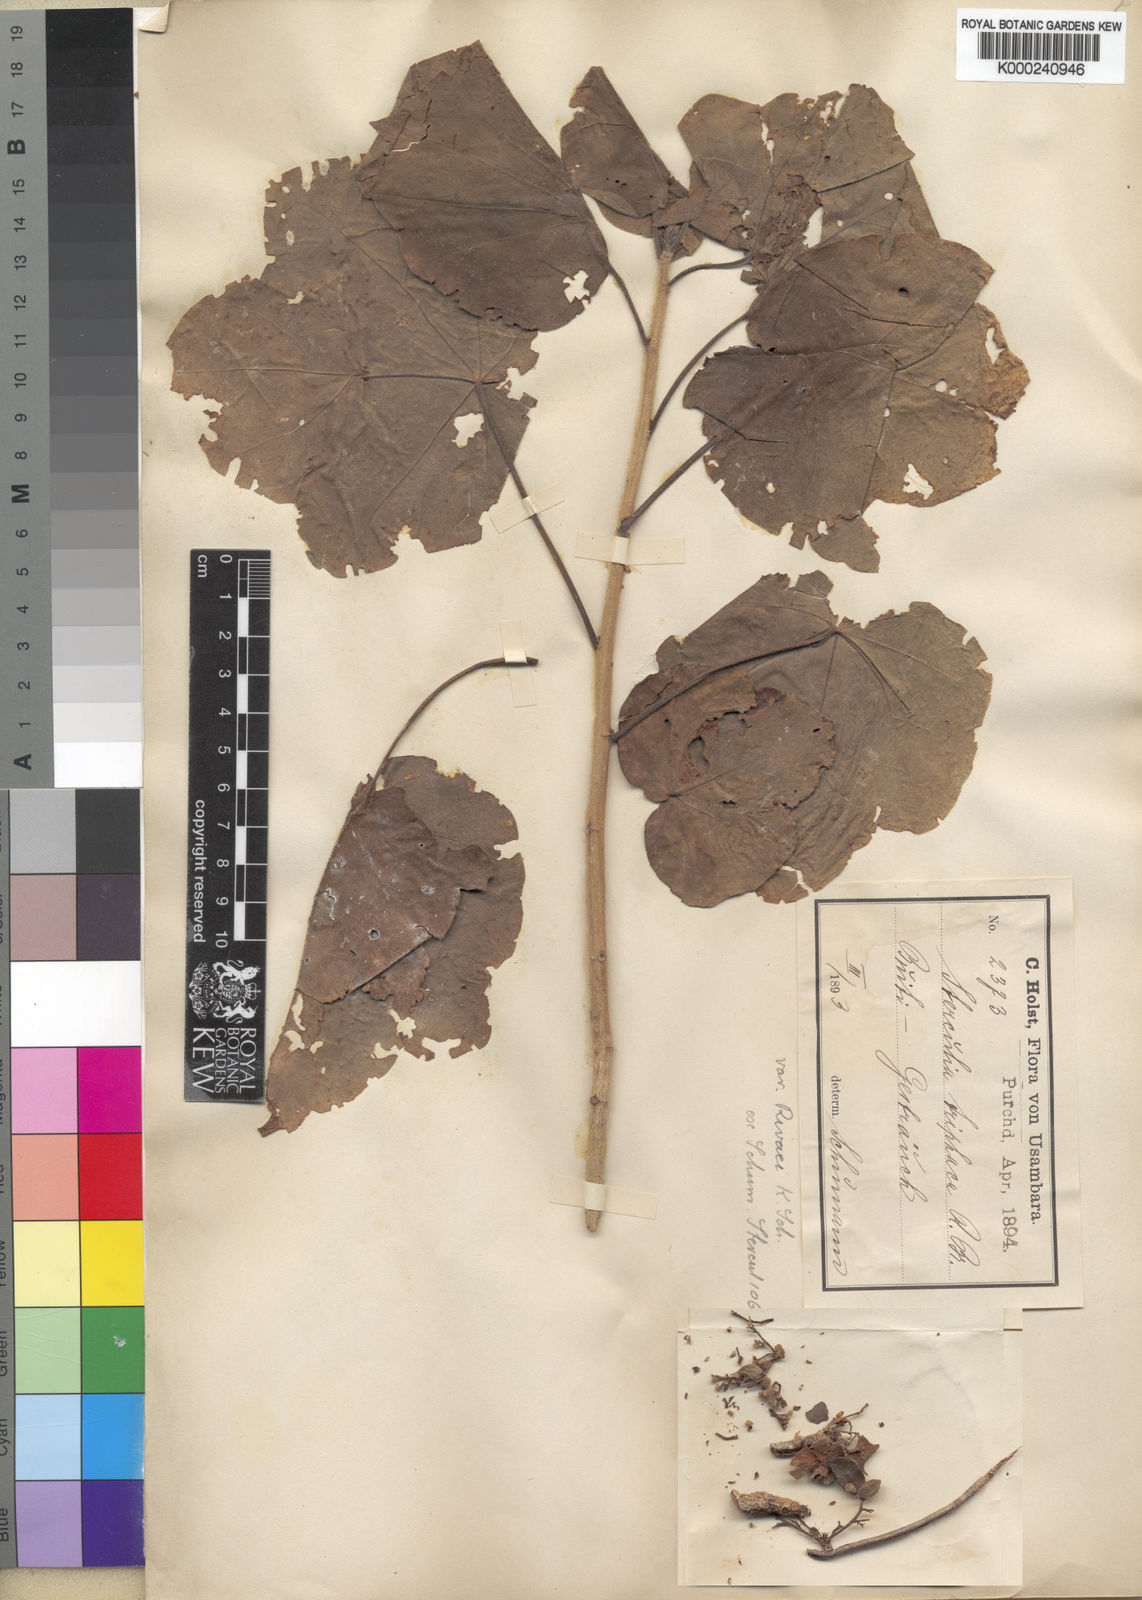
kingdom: Plantae
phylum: Tracheophyta
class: Magnoliopsida
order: Malvales
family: Malvaceae
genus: Sterculia
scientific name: Sterculia africana
